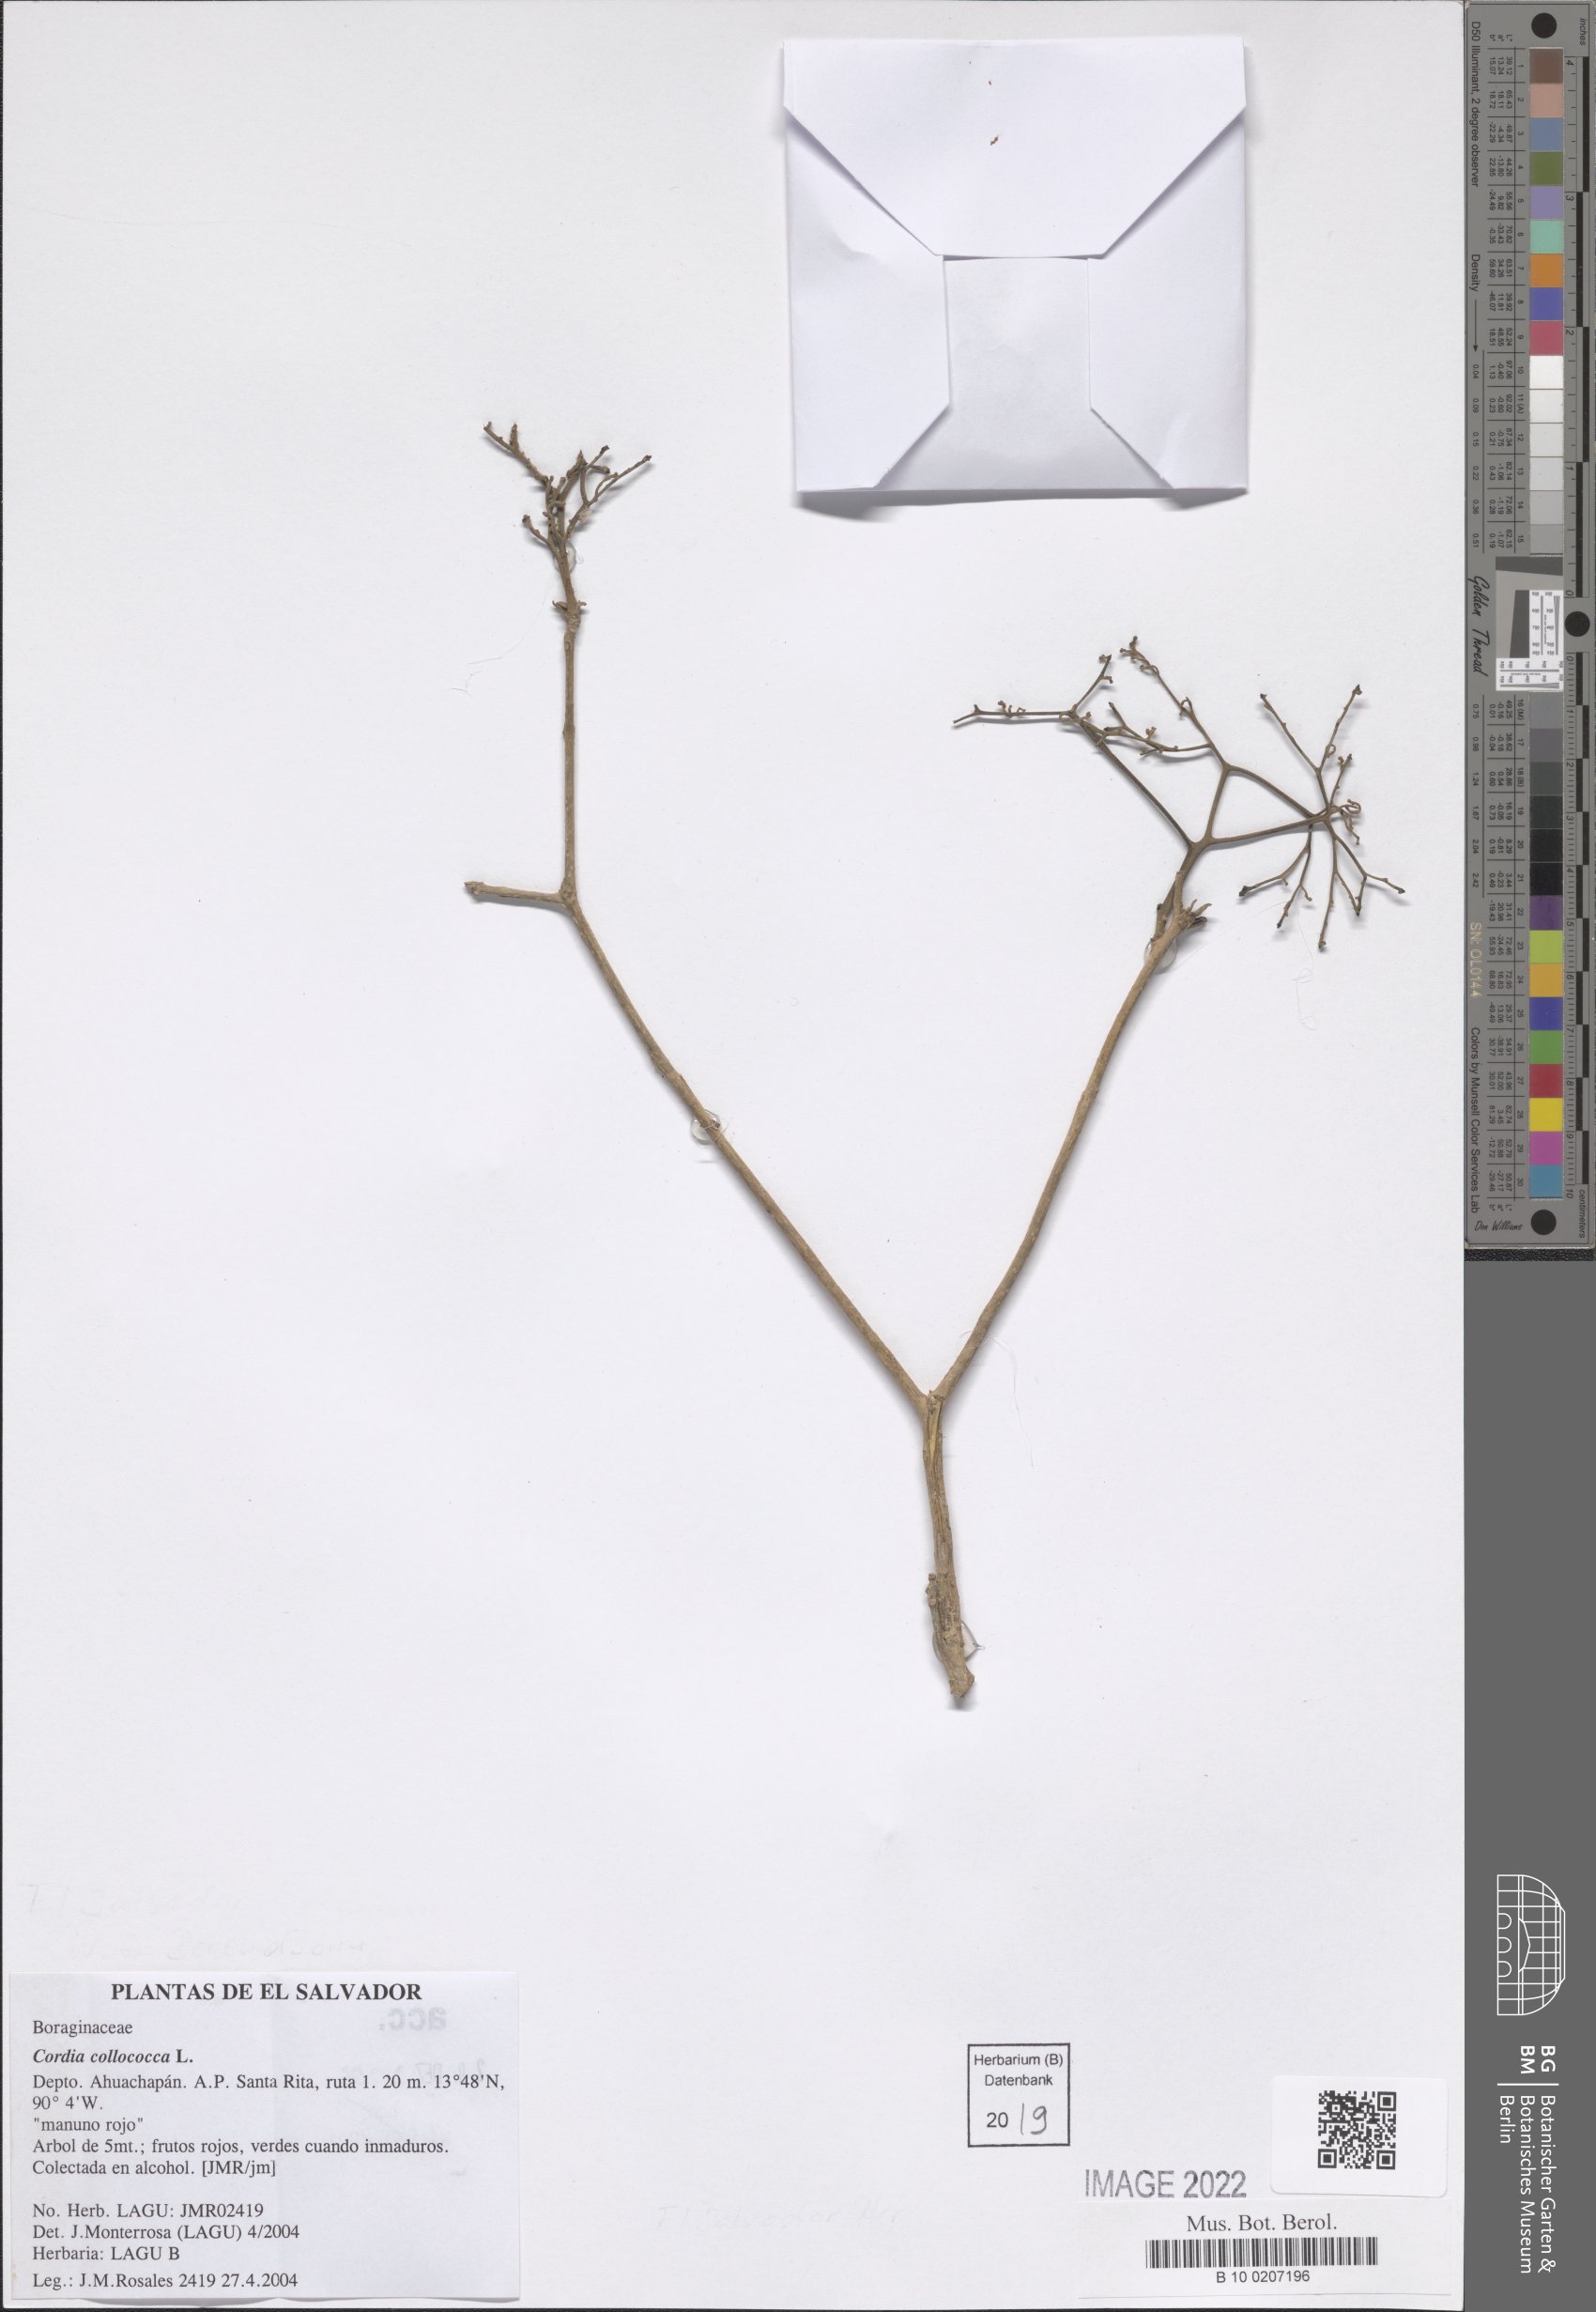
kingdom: Plantae
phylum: Tracheophyta
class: Magnoliopsida
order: Boraginales
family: Cordiaceae
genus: Cordia
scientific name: Cordia collococca
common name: Clammy cherry
